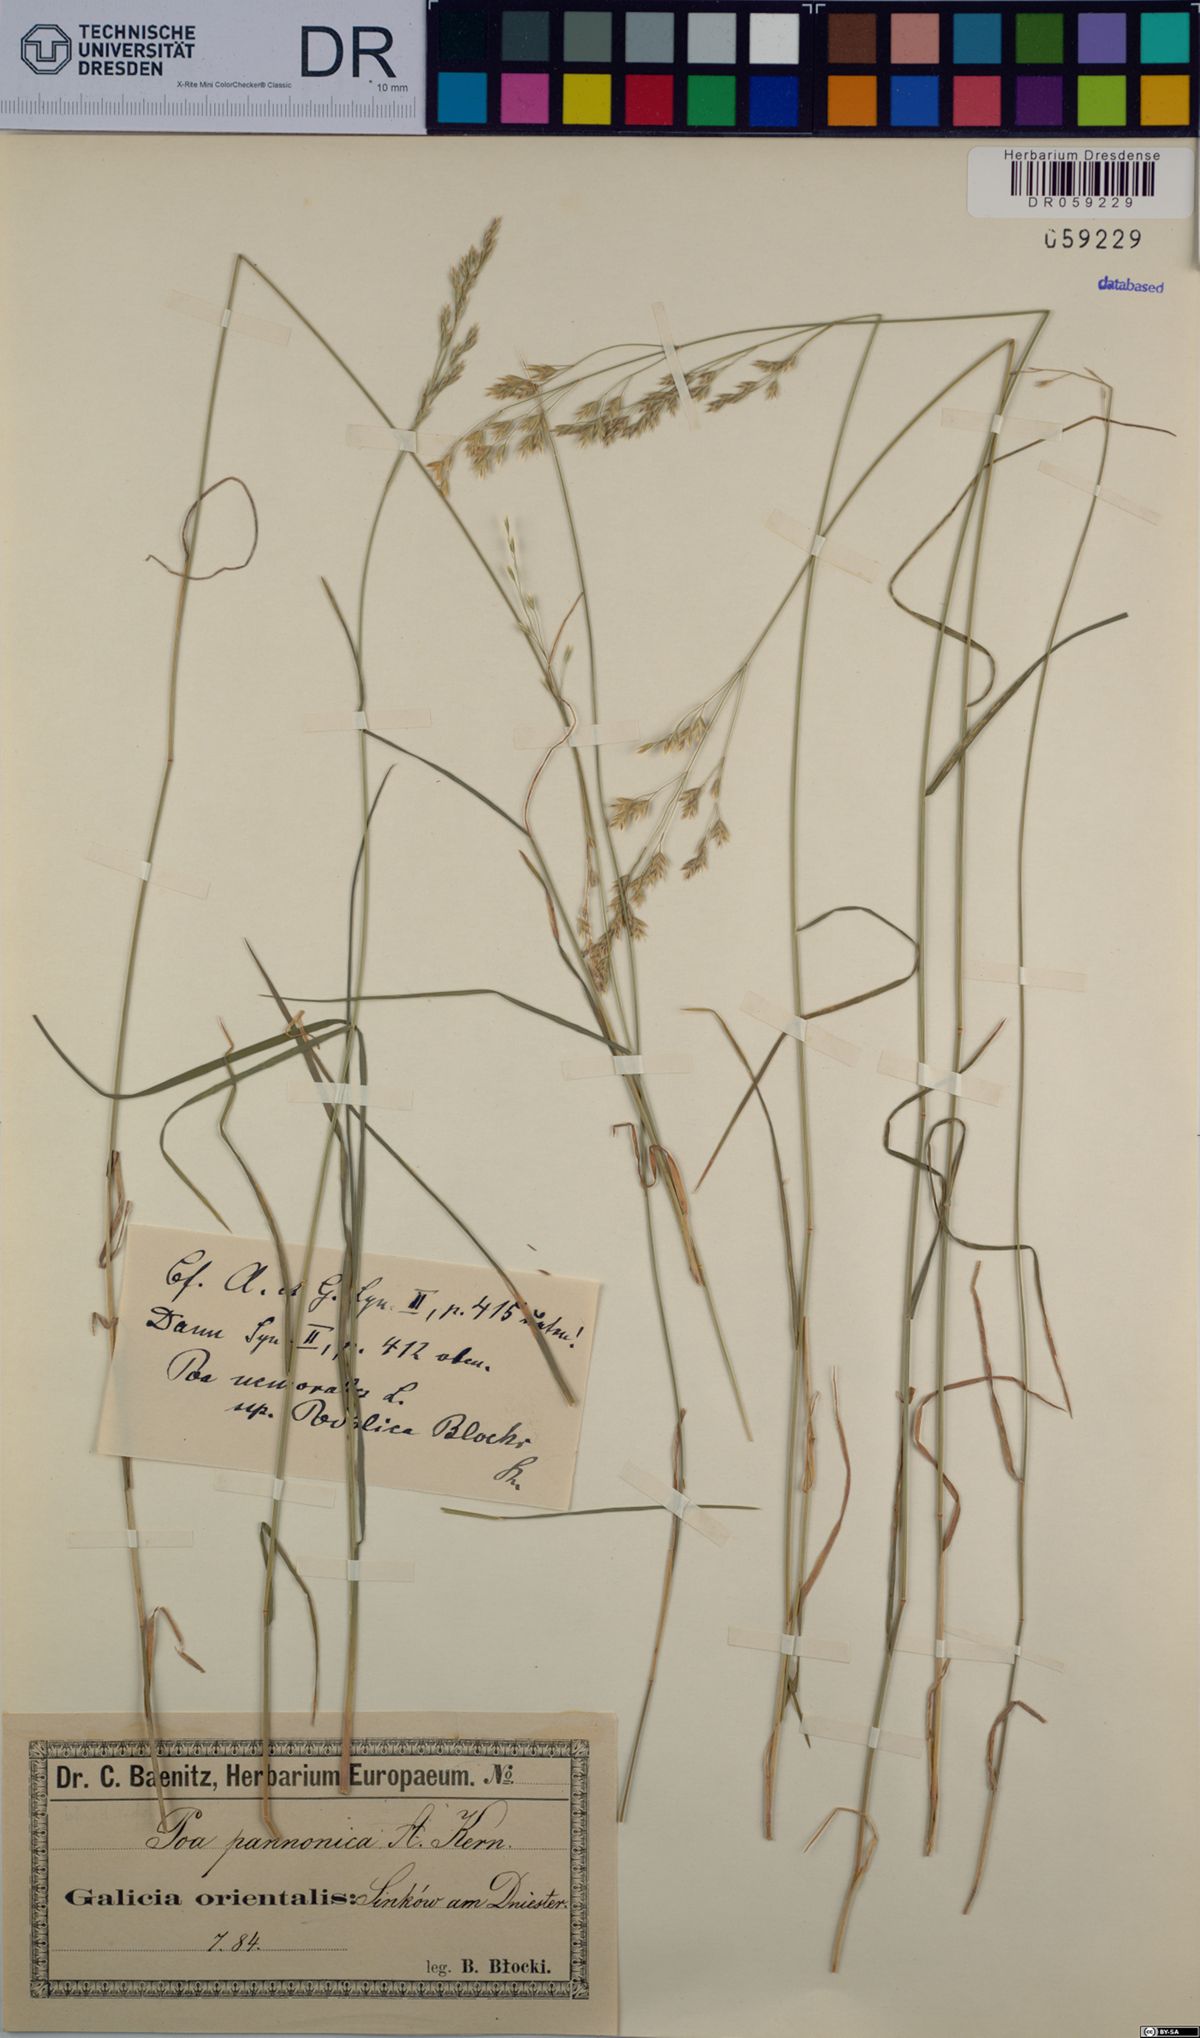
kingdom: Plantae
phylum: Tracheophyta
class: Liliopsida
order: Poales
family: Poaceae
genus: Poa
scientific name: Poa pannonica
